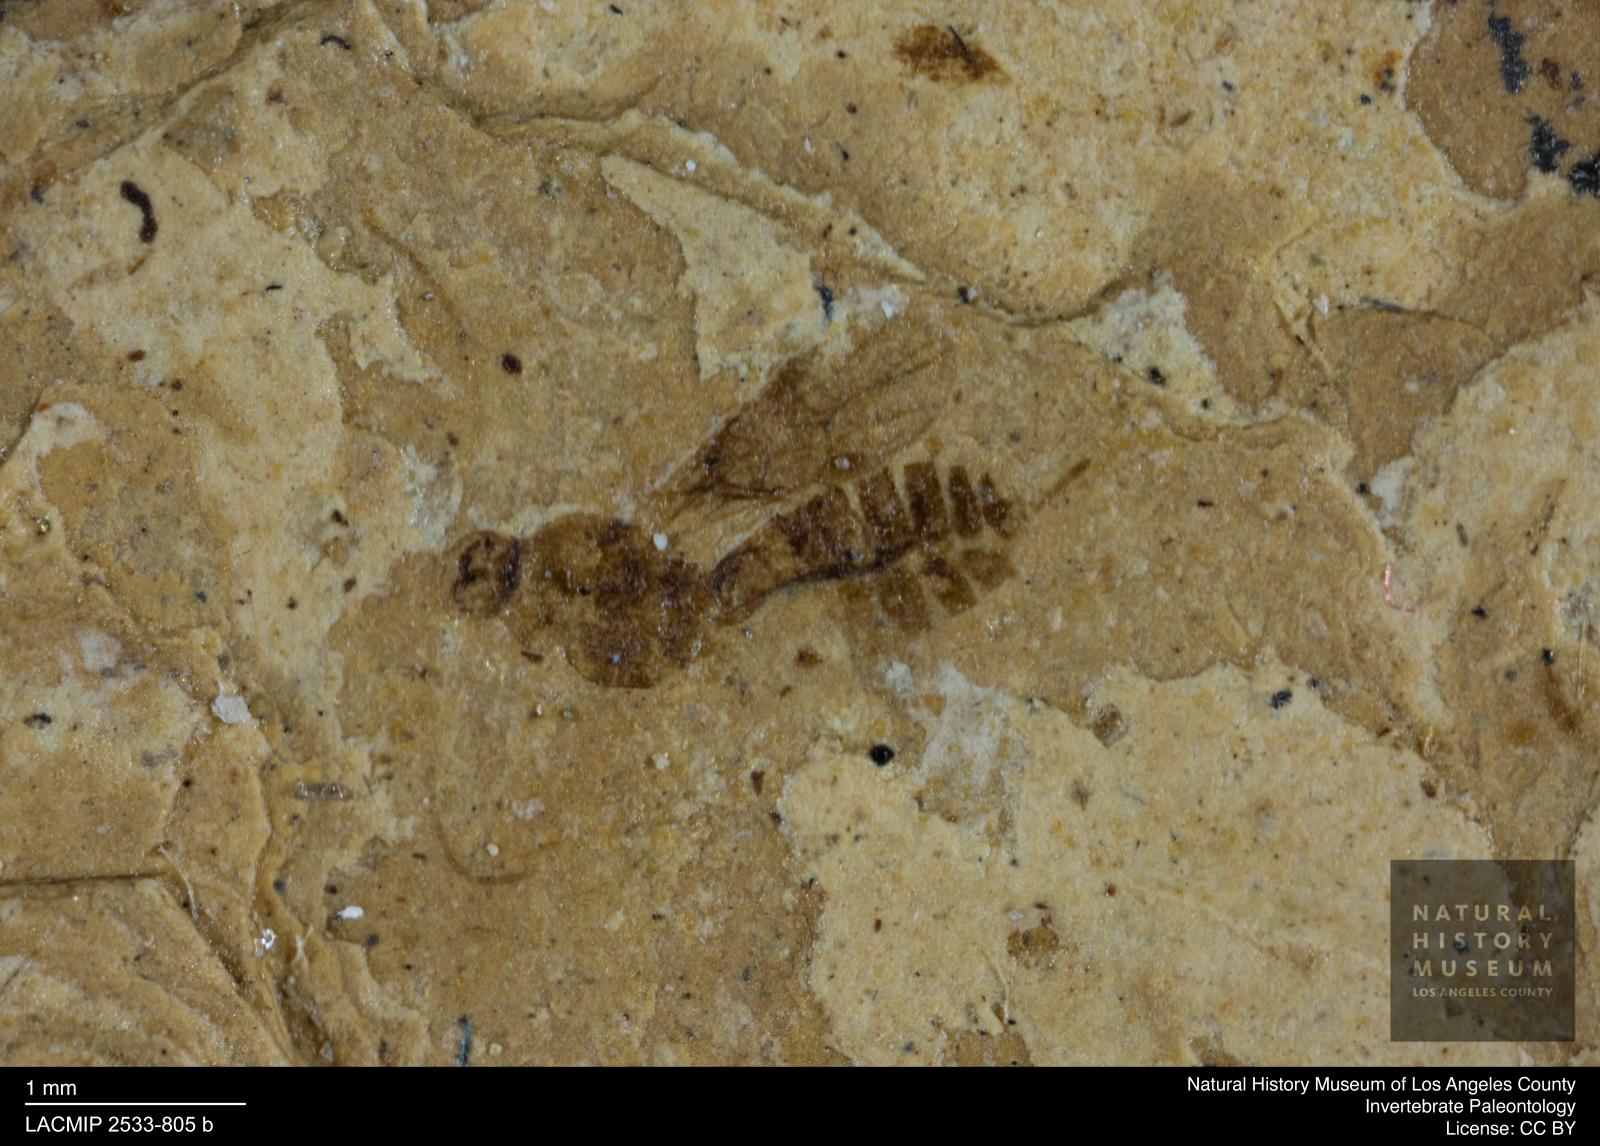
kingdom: Animalia
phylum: Arthropoda
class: Insecta
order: Hymenoptera
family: Braconidae
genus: Pentapleura
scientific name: Pentapleura filicornis
